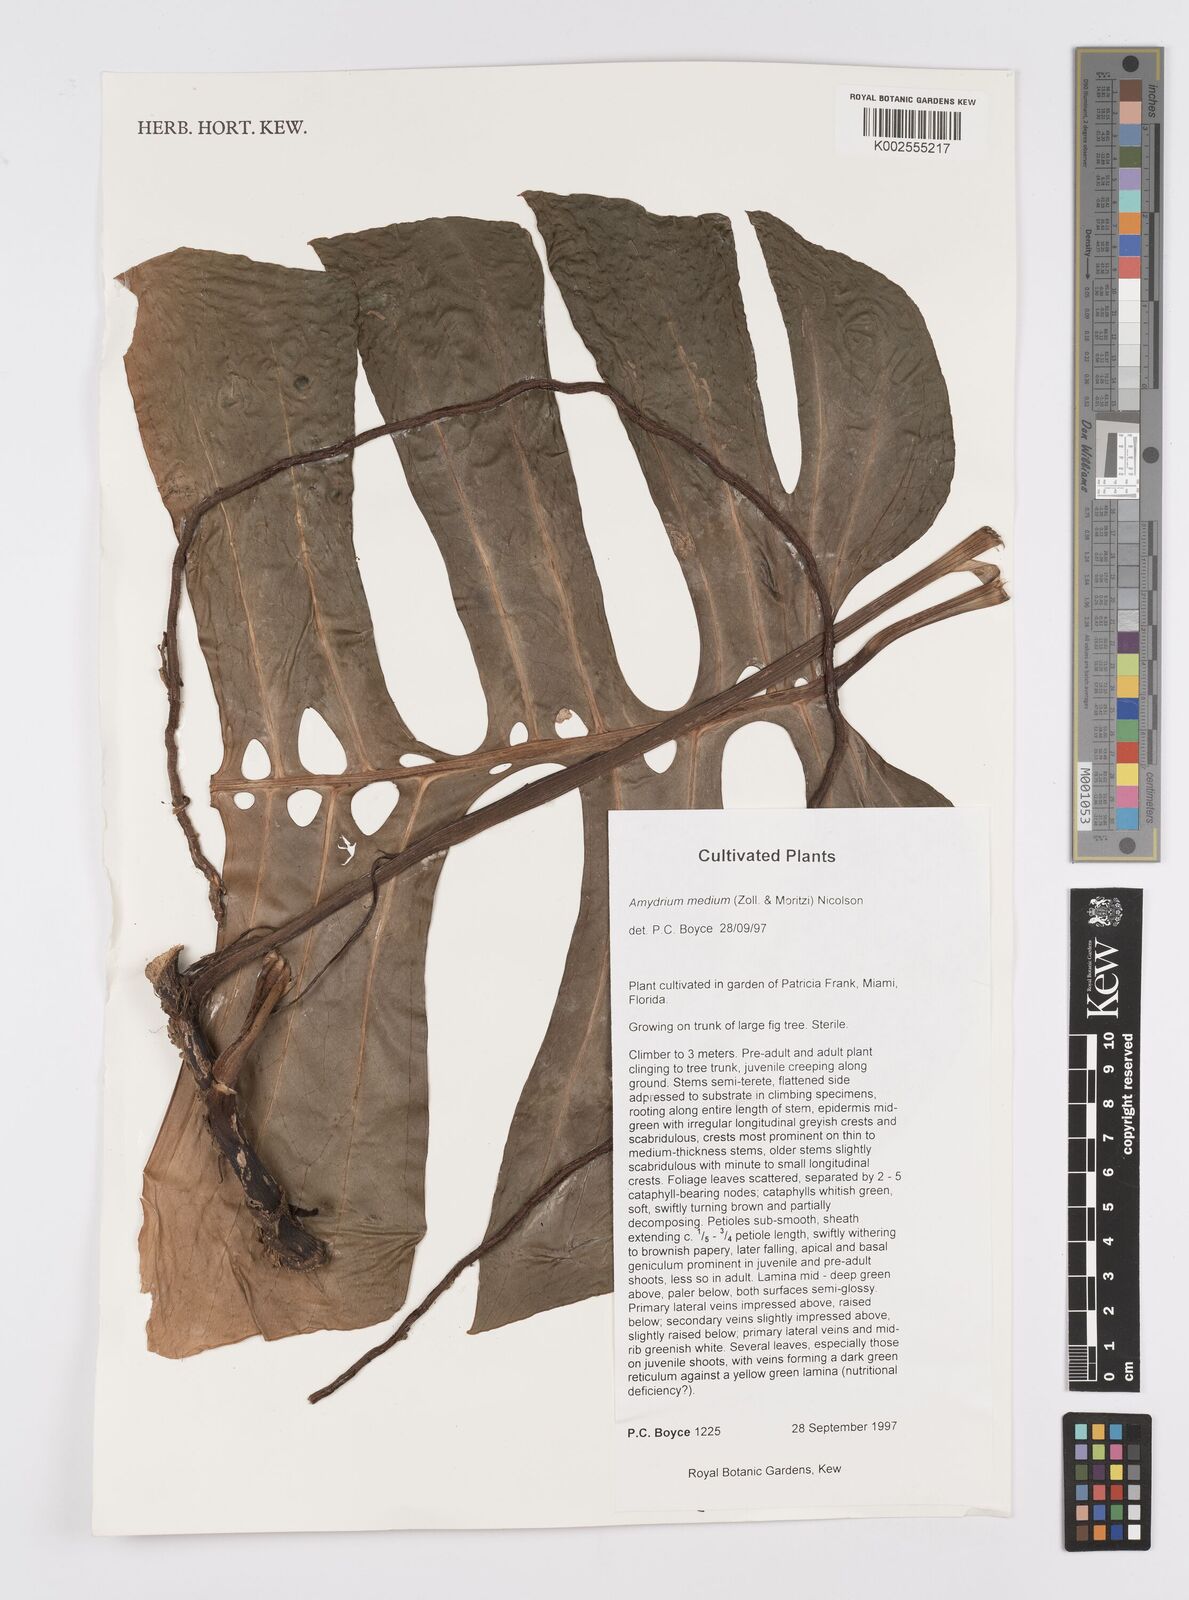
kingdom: Plantae
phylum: Tracheophyta
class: Liliopsida
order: Alismatales
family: Araceae
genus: Amydrium
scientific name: Amydrium medium
